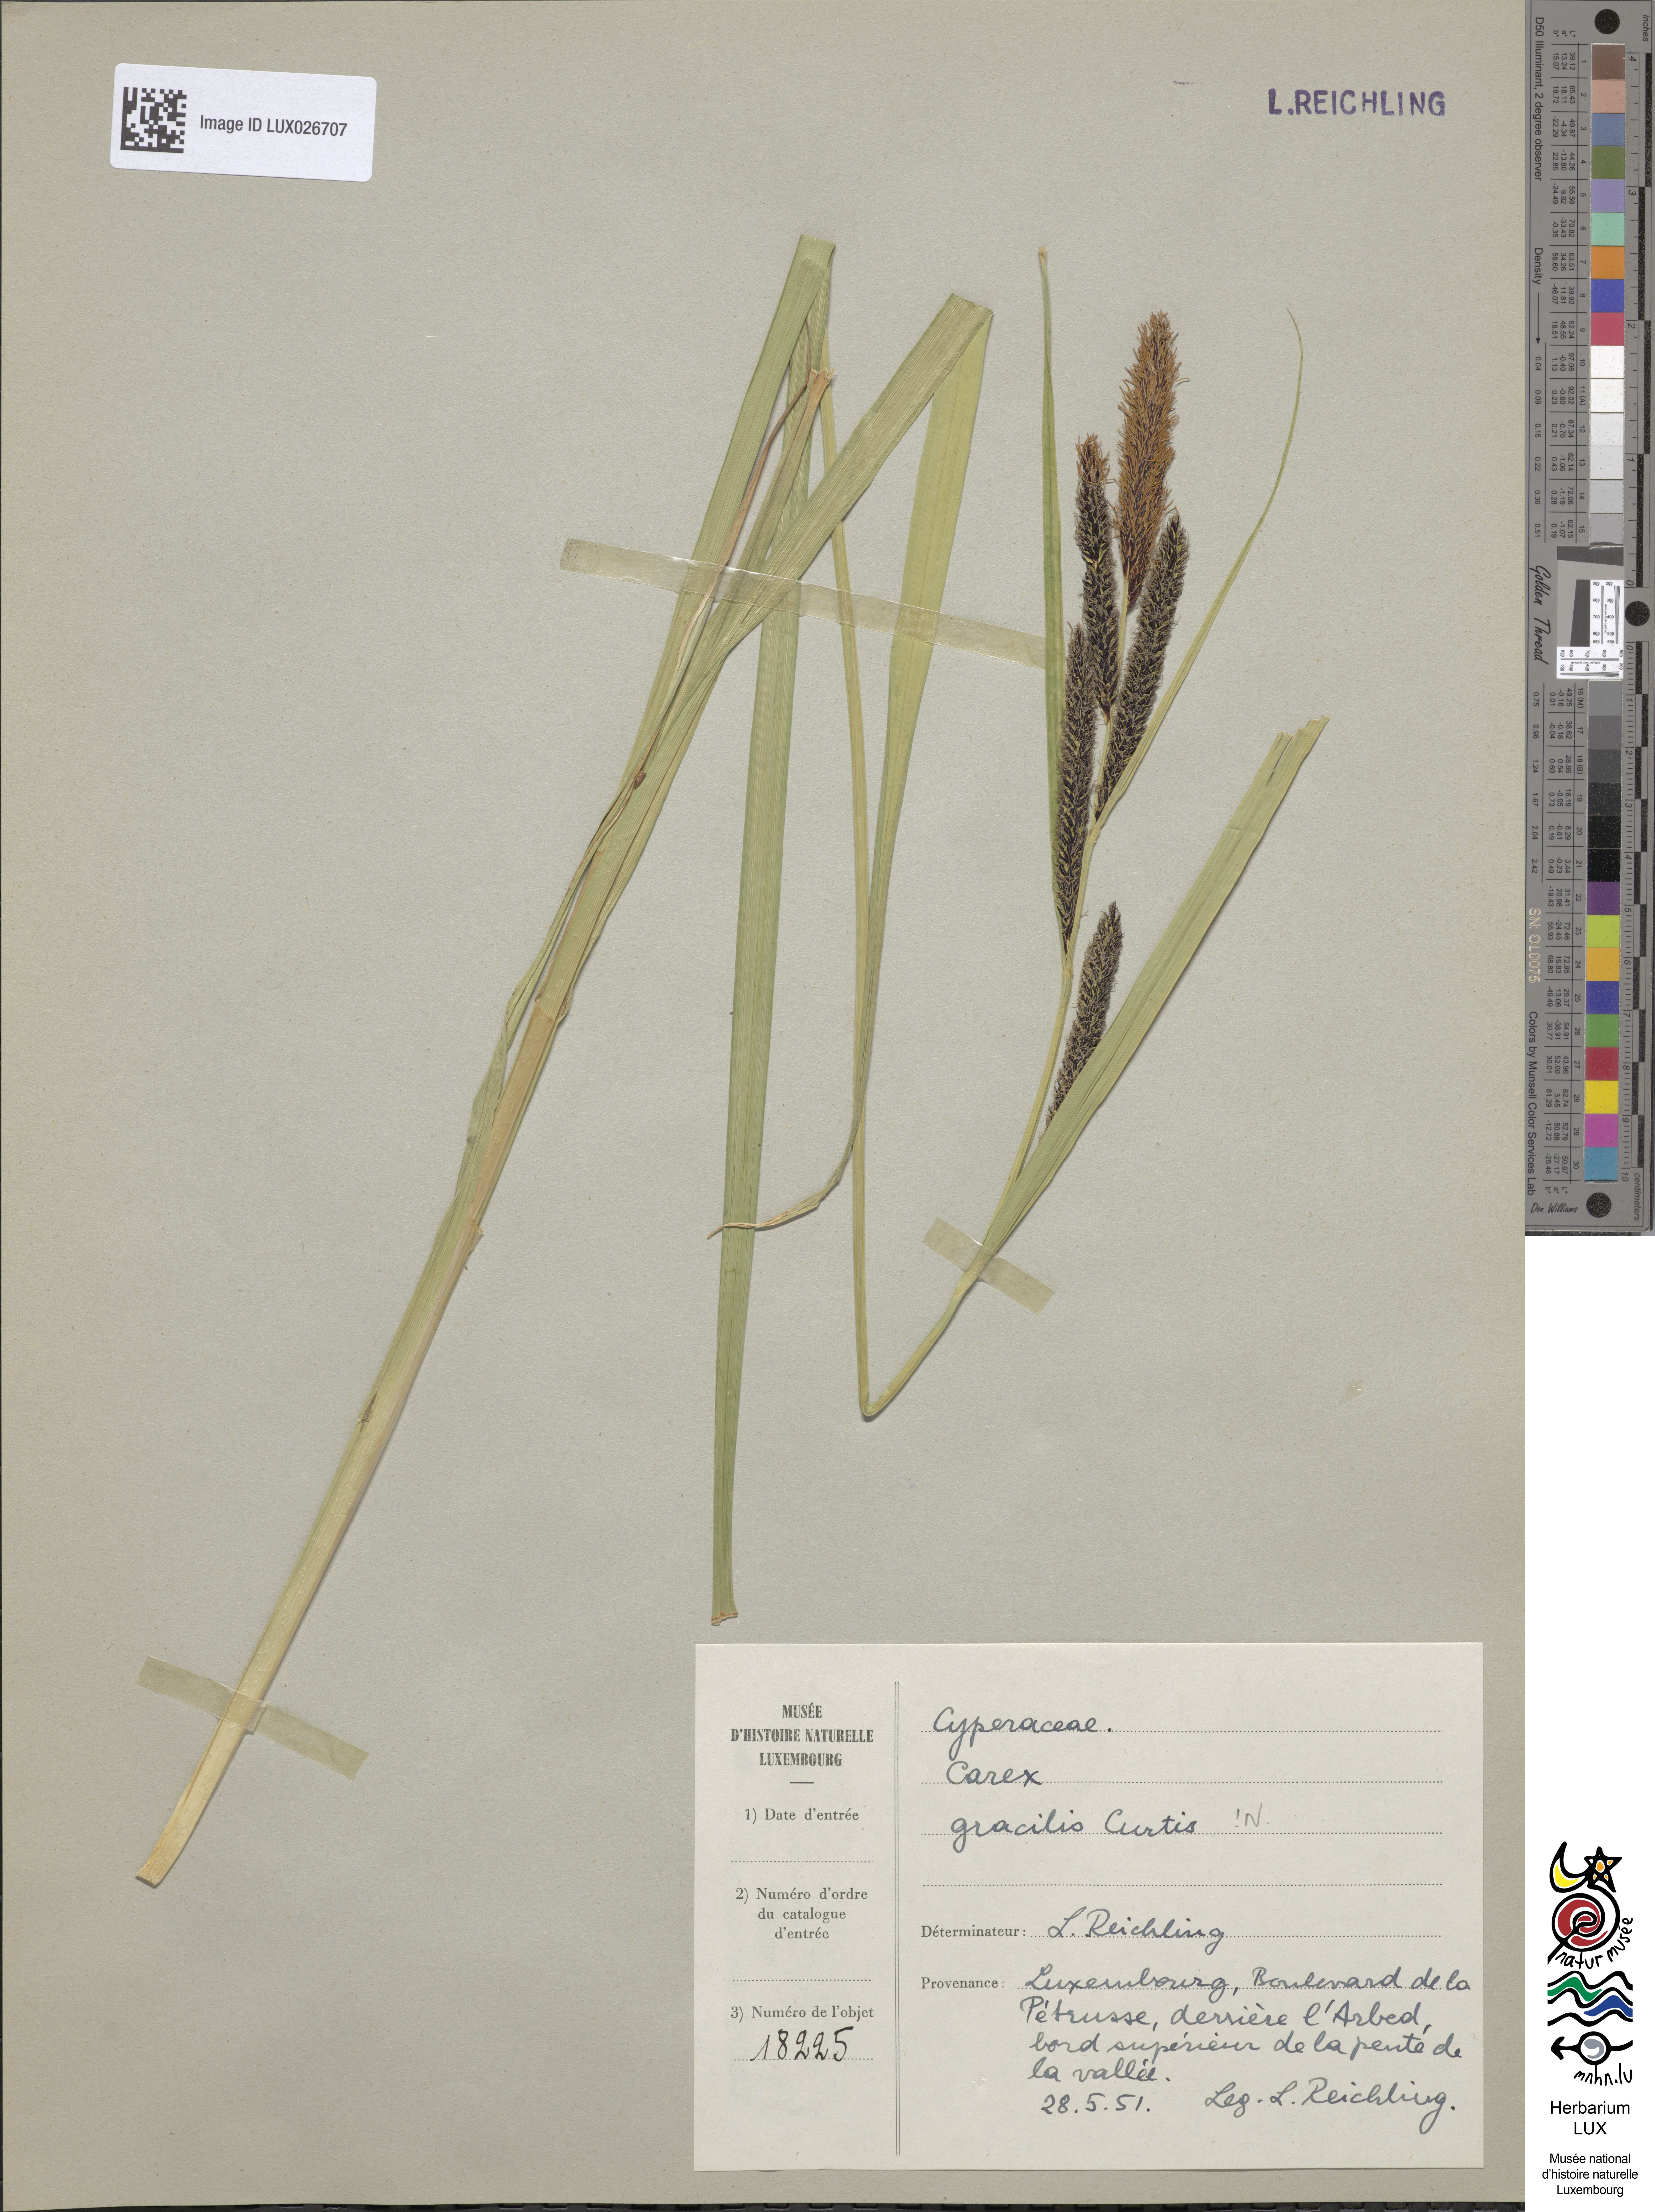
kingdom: Plantae
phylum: Tracheophyta
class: Liliopsida
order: Poales
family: Cyperaceae
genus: Carex
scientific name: Carex acuta
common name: Slender tufted-sedge
